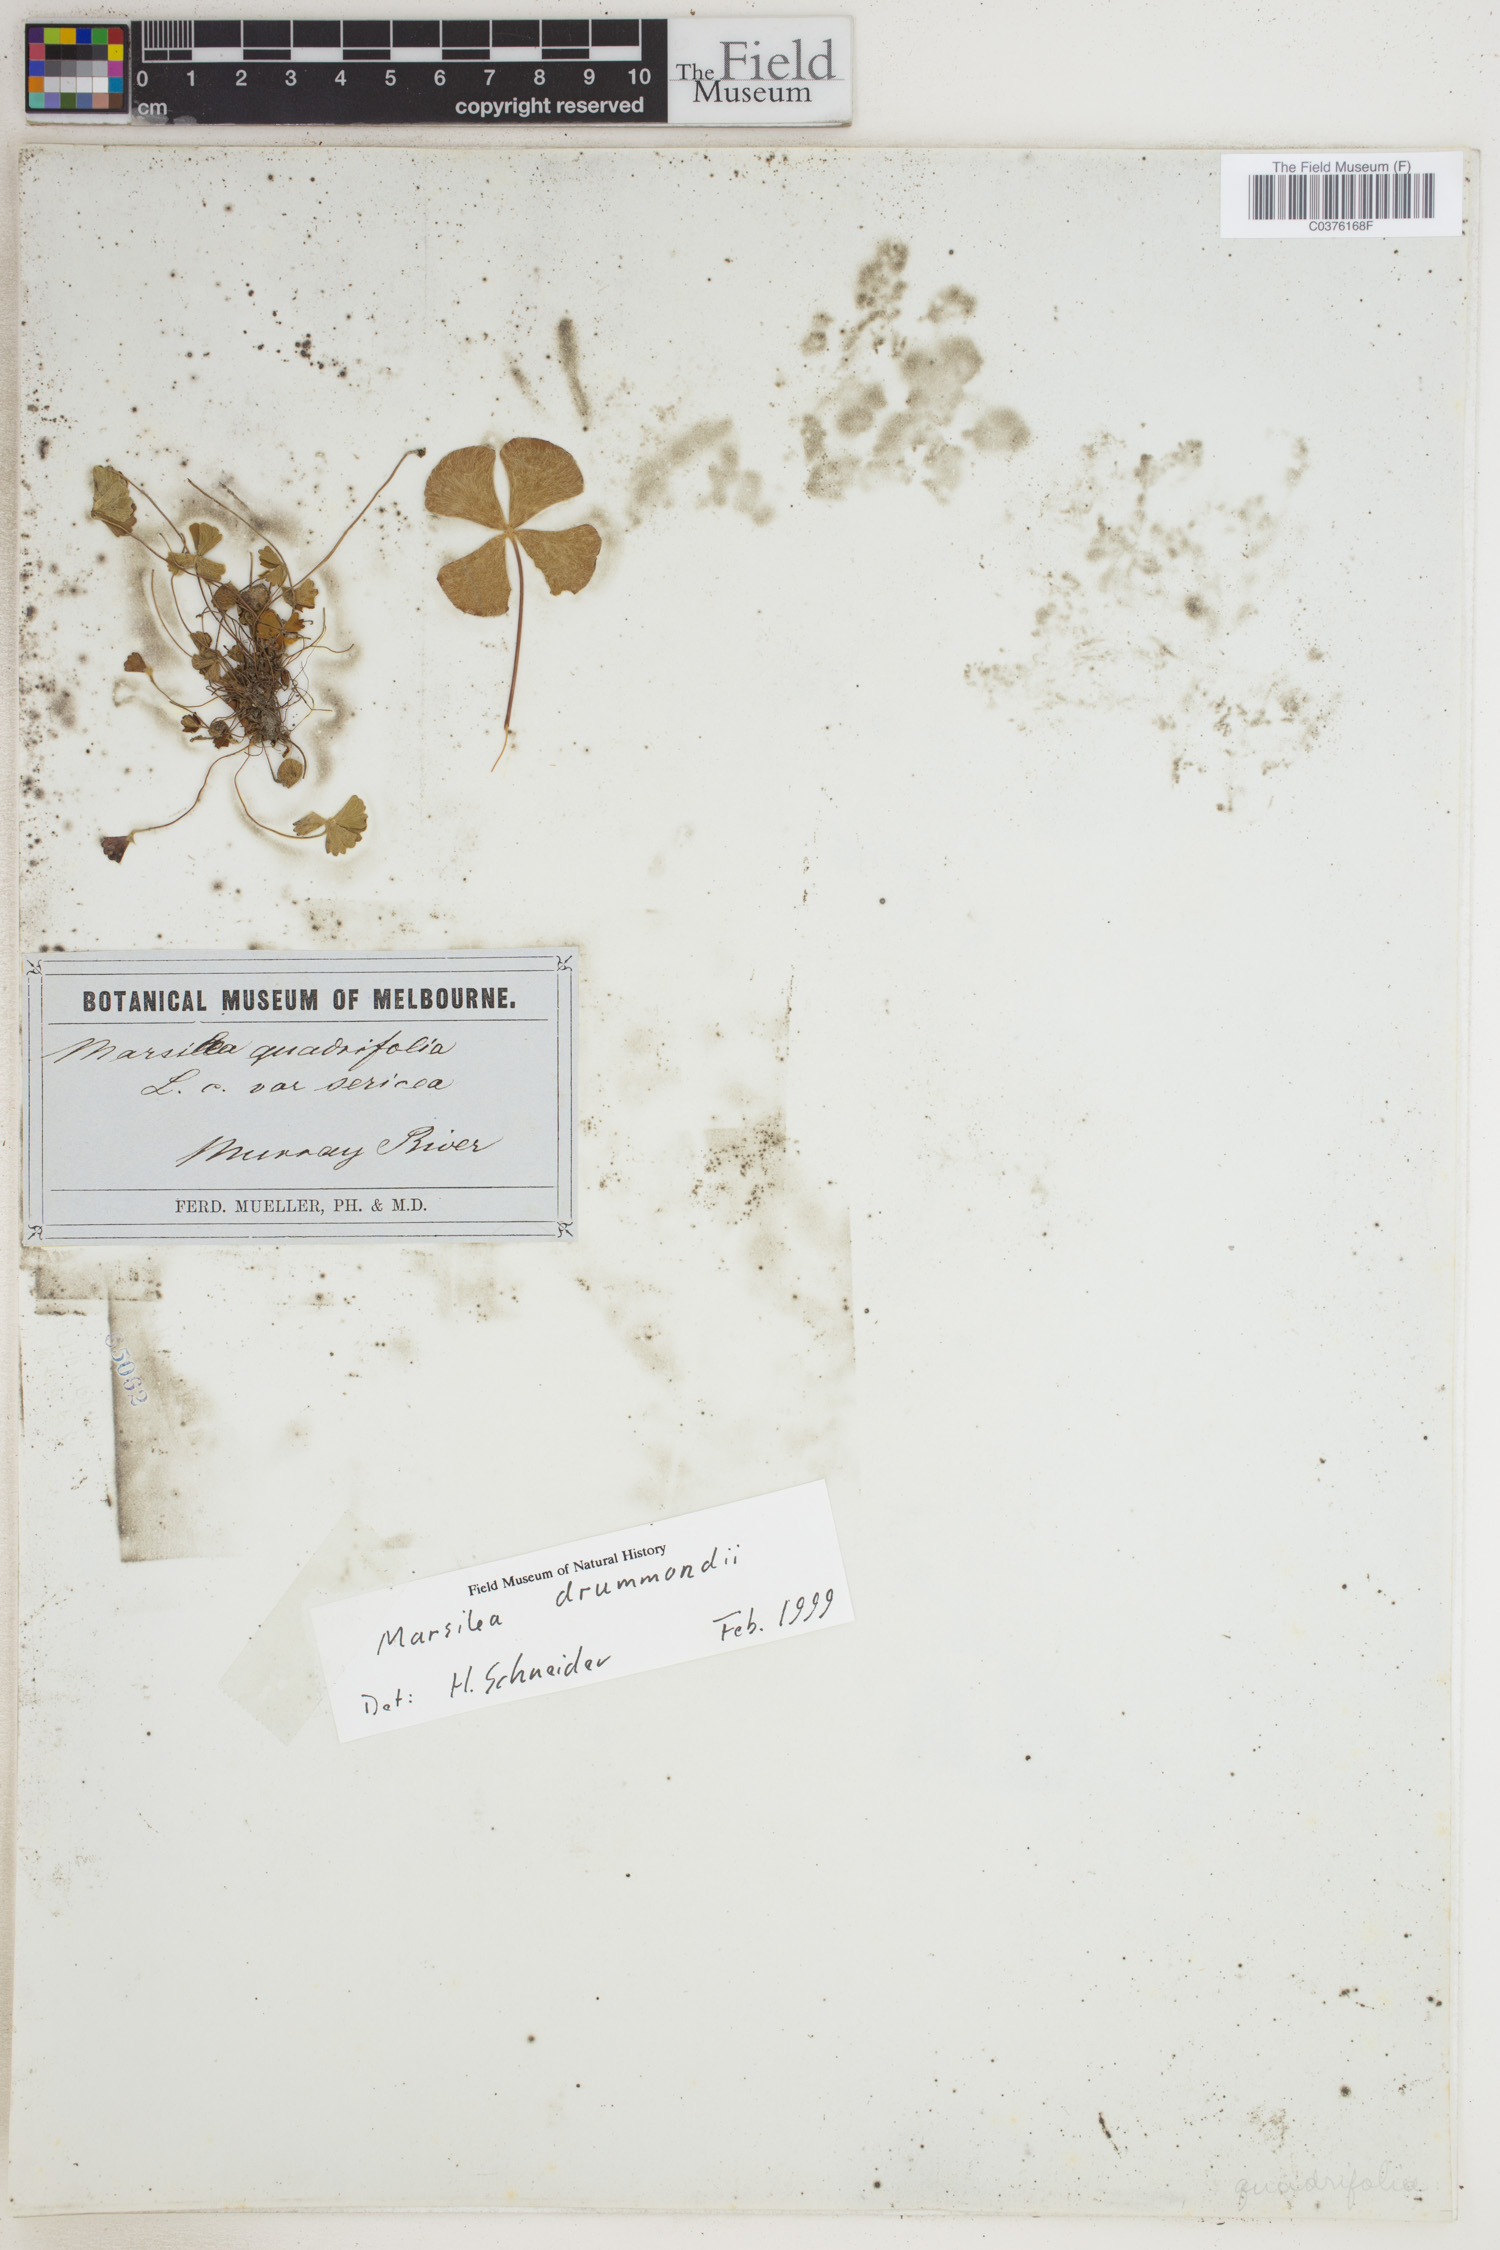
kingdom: Plantae
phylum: Tracheophyta
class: Polypodiopsida
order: Salviniales
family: Marsileaceae
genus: Marsilea
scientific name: Marsilea drummondii
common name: Nardoo
